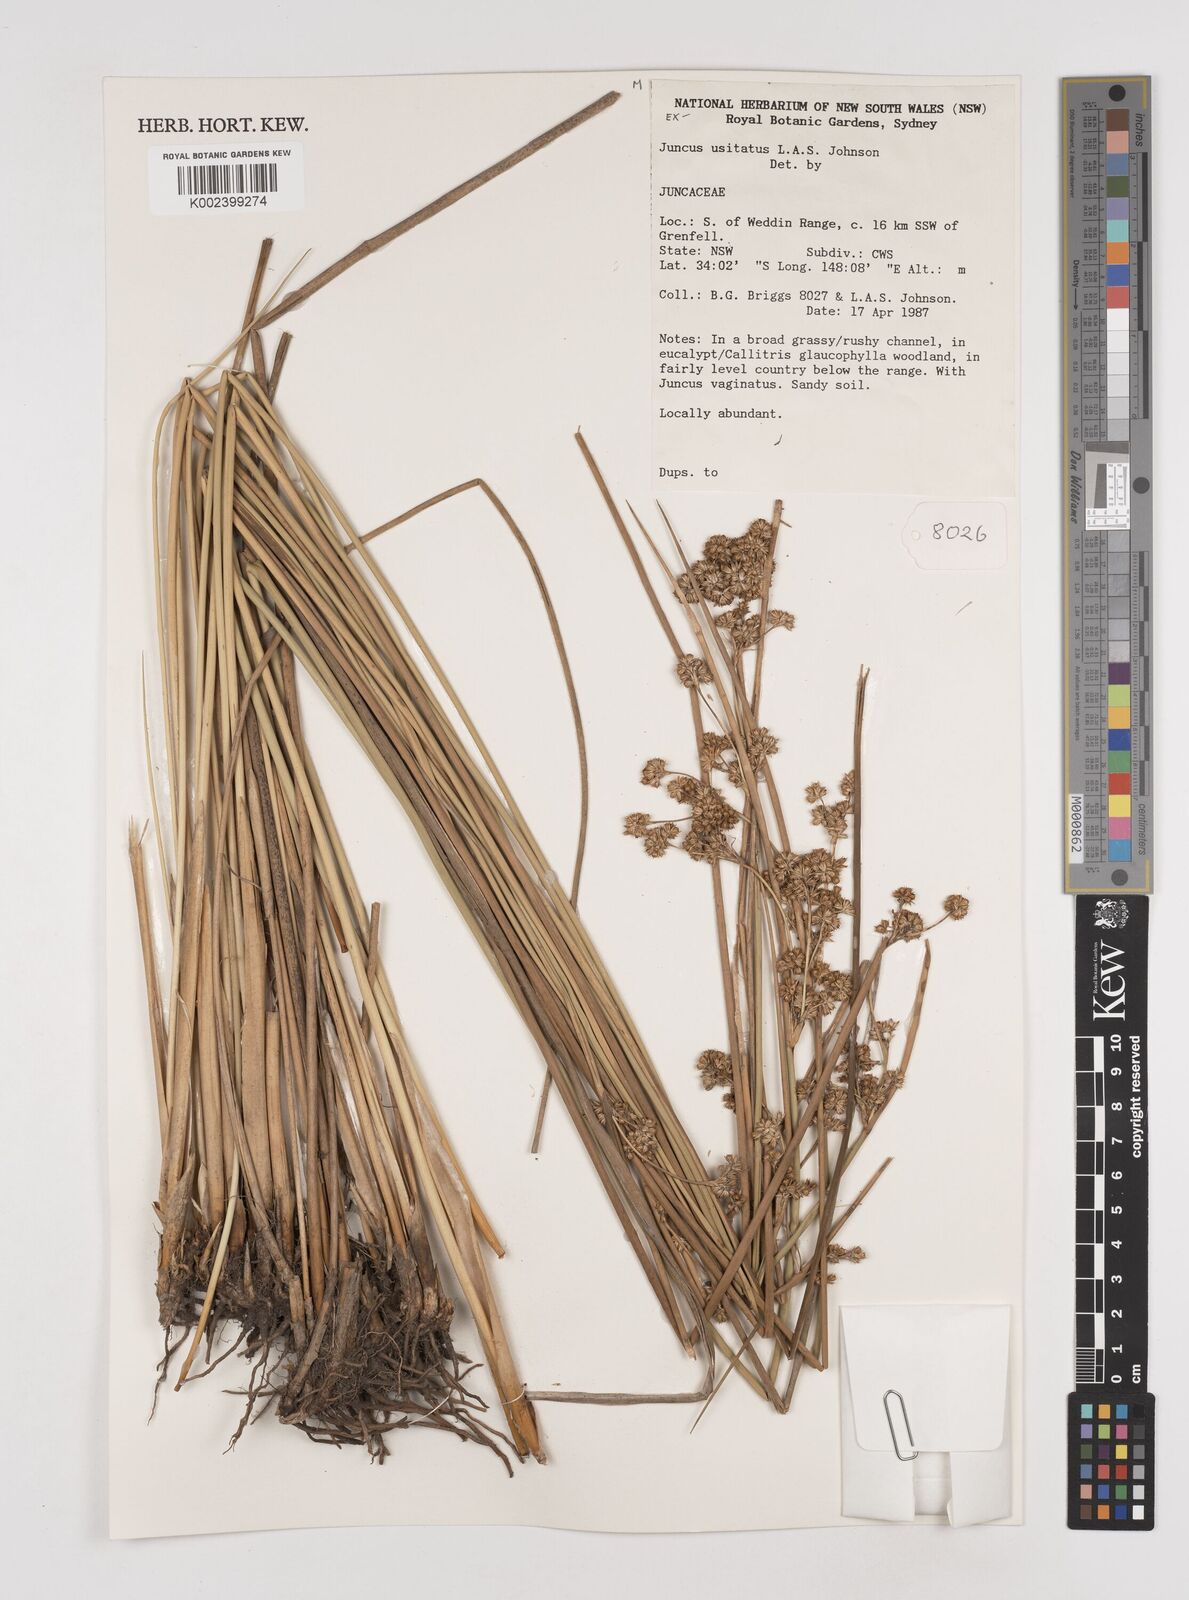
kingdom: Plantae
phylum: Tracheophyta
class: Liliopsida
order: Poales
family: Juncaceae
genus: Juncus
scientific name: Juncus usitatus
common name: Rush
